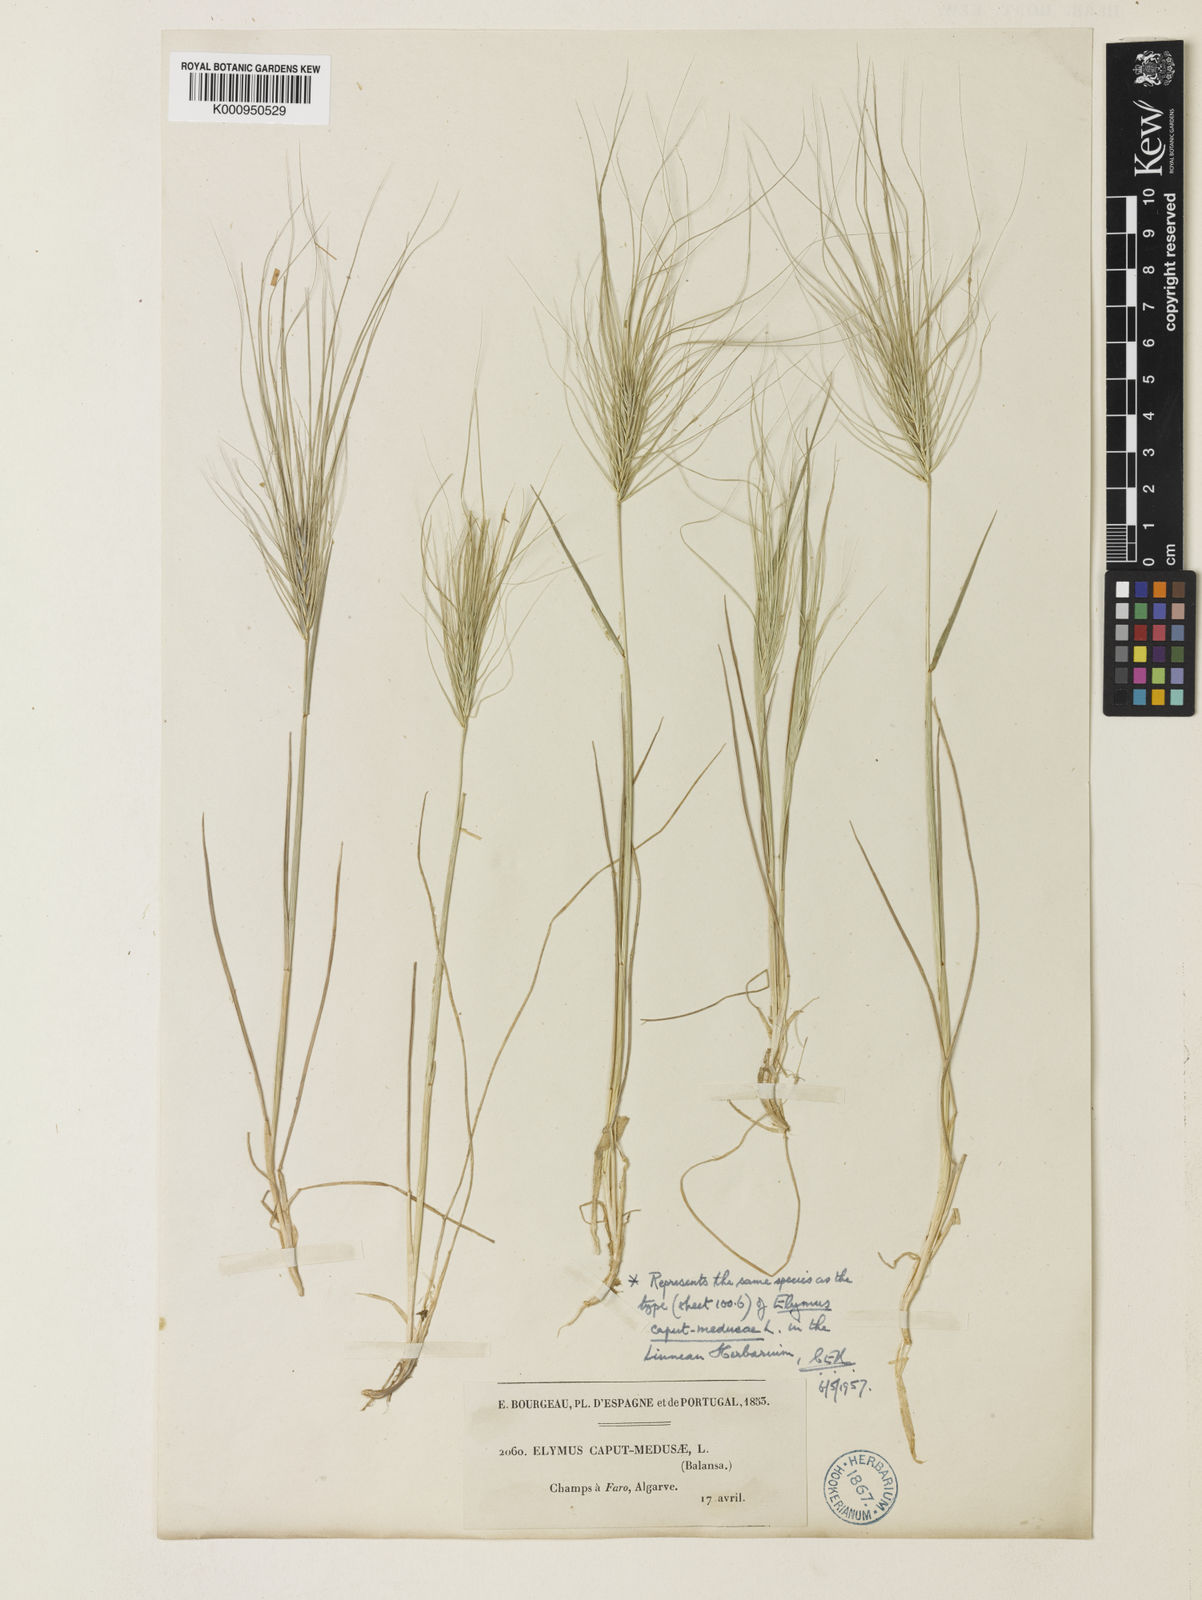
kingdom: Plantae
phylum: Tracheophyta
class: Liliopsida
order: Poales
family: Poaceae
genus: Taeniatherum
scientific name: Taeniatherum caput-medusae
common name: Medusahead
